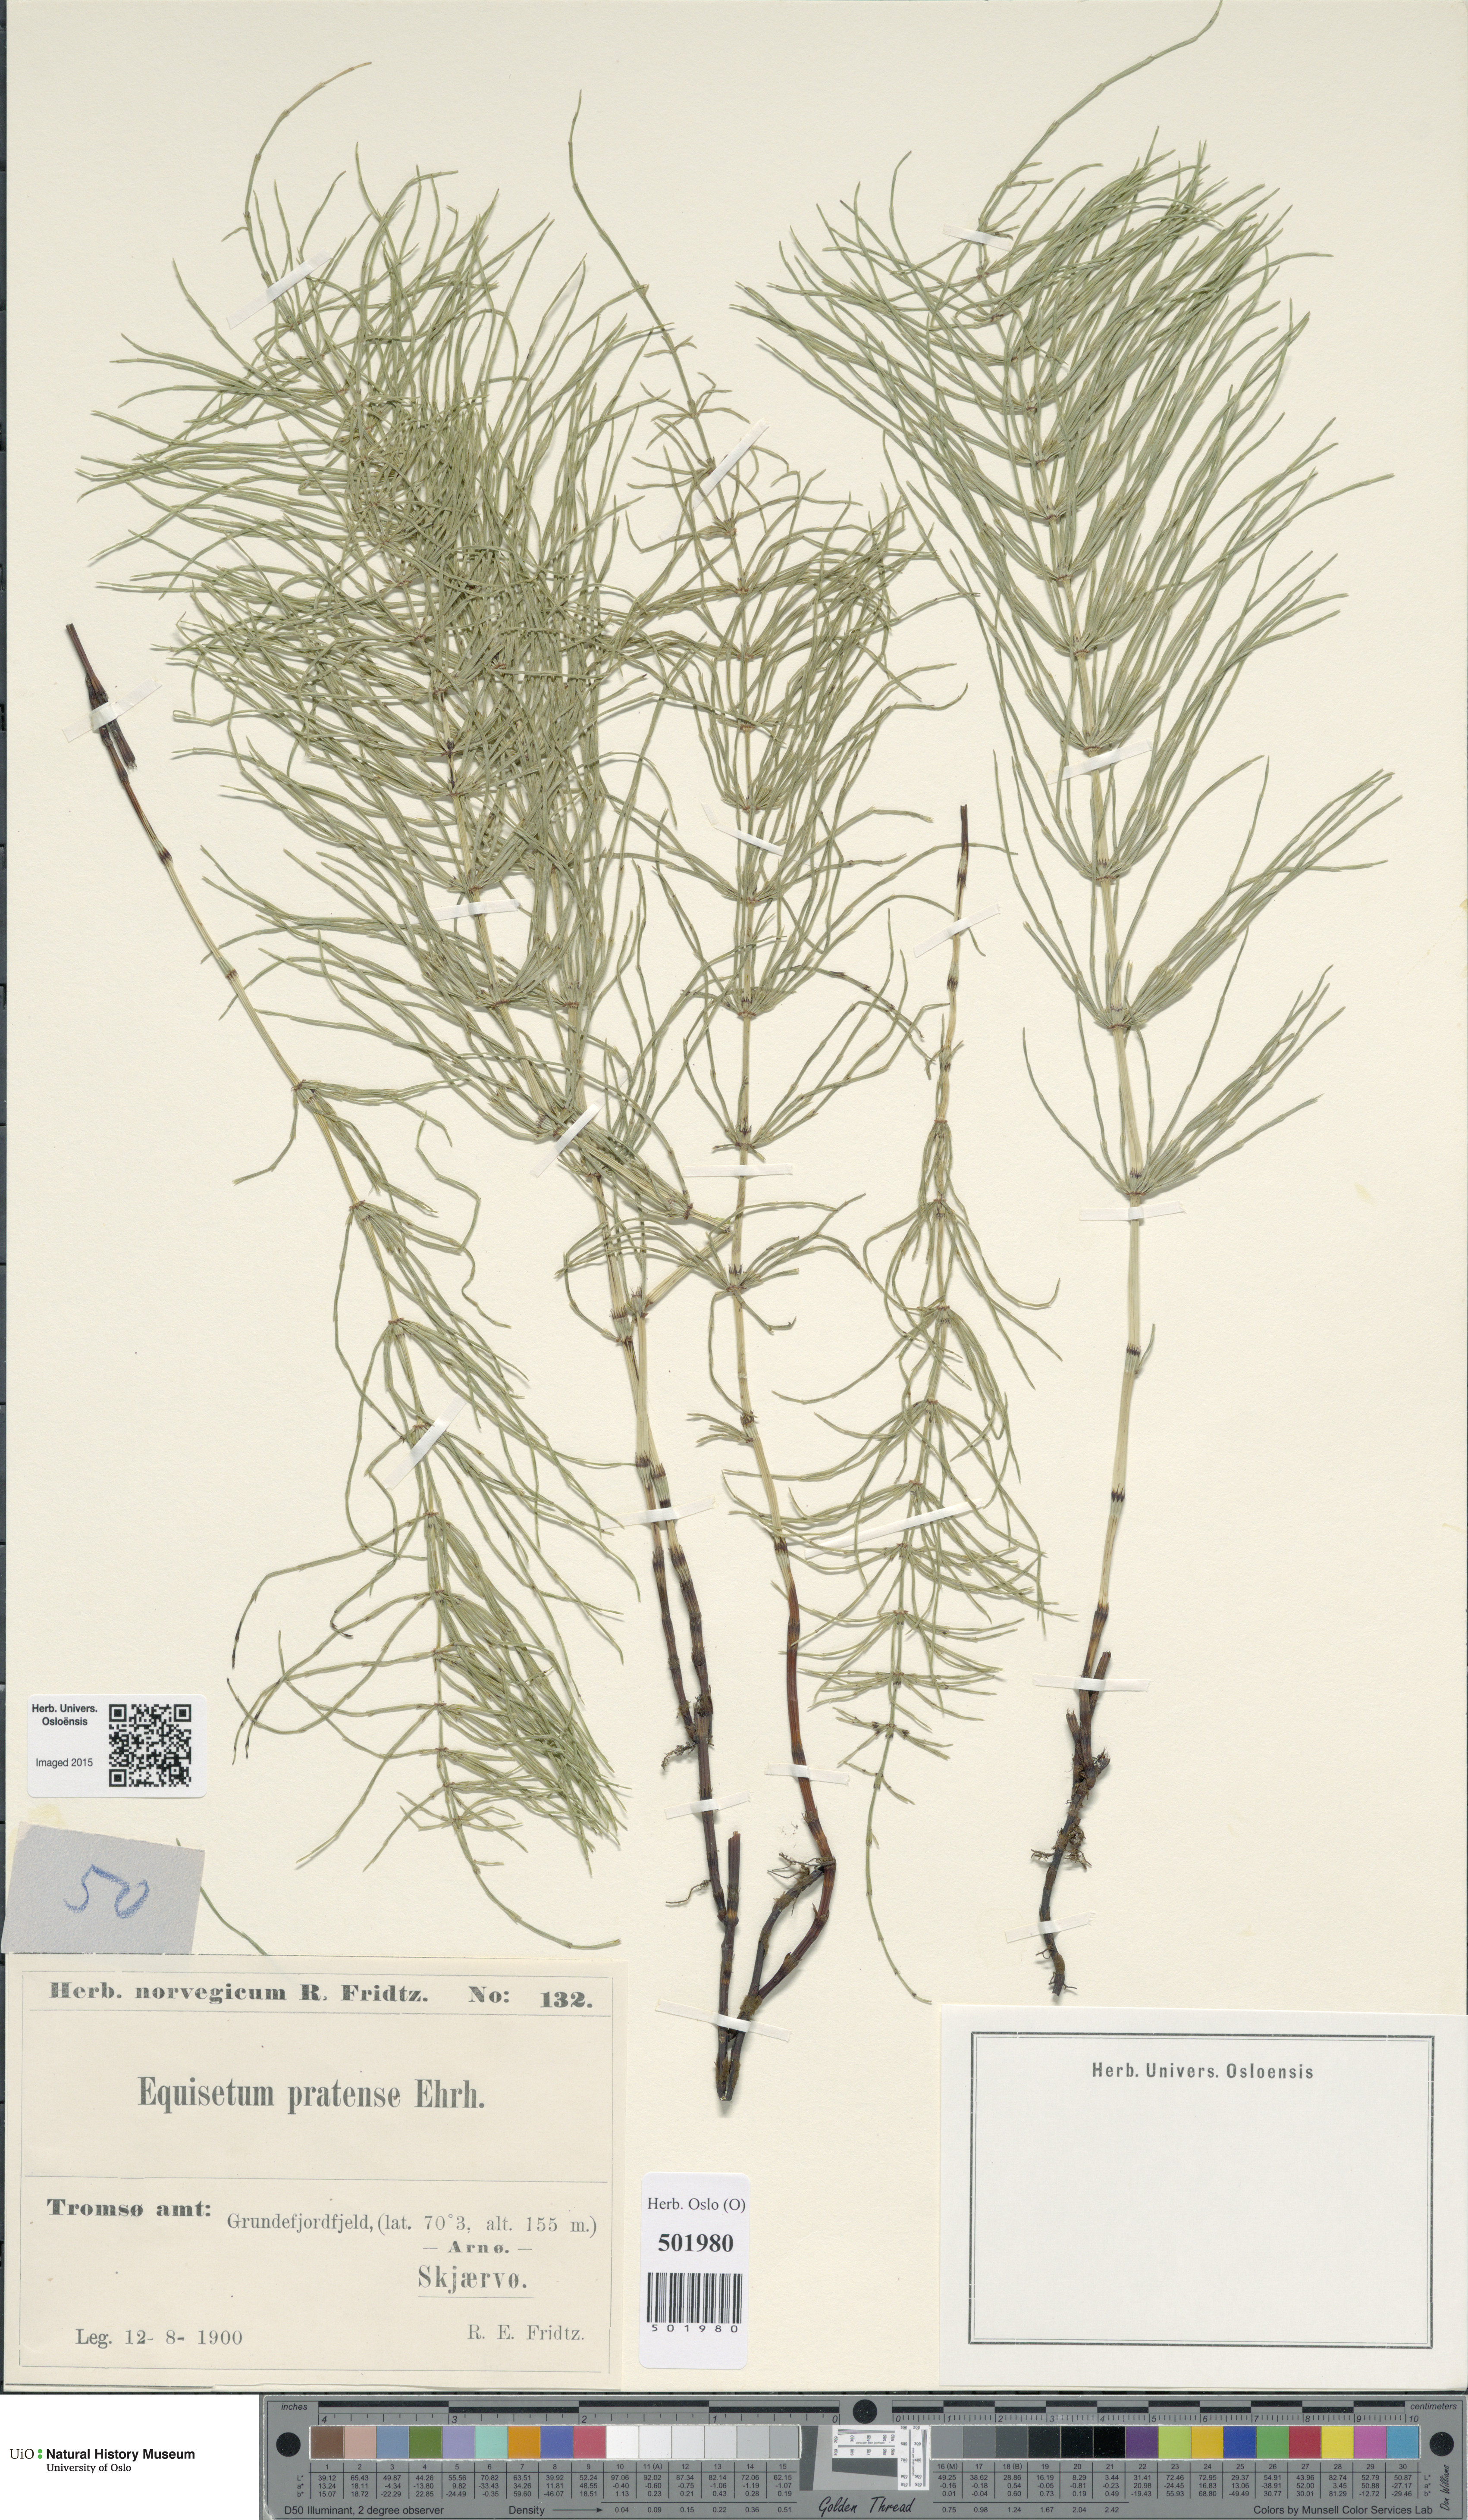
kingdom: Plantae
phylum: Tracheophyta
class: Polypodiopsida
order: Equisetales
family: Equisetaceae
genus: Equisetum
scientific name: Equisetum pratense
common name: Meadow horsetail
